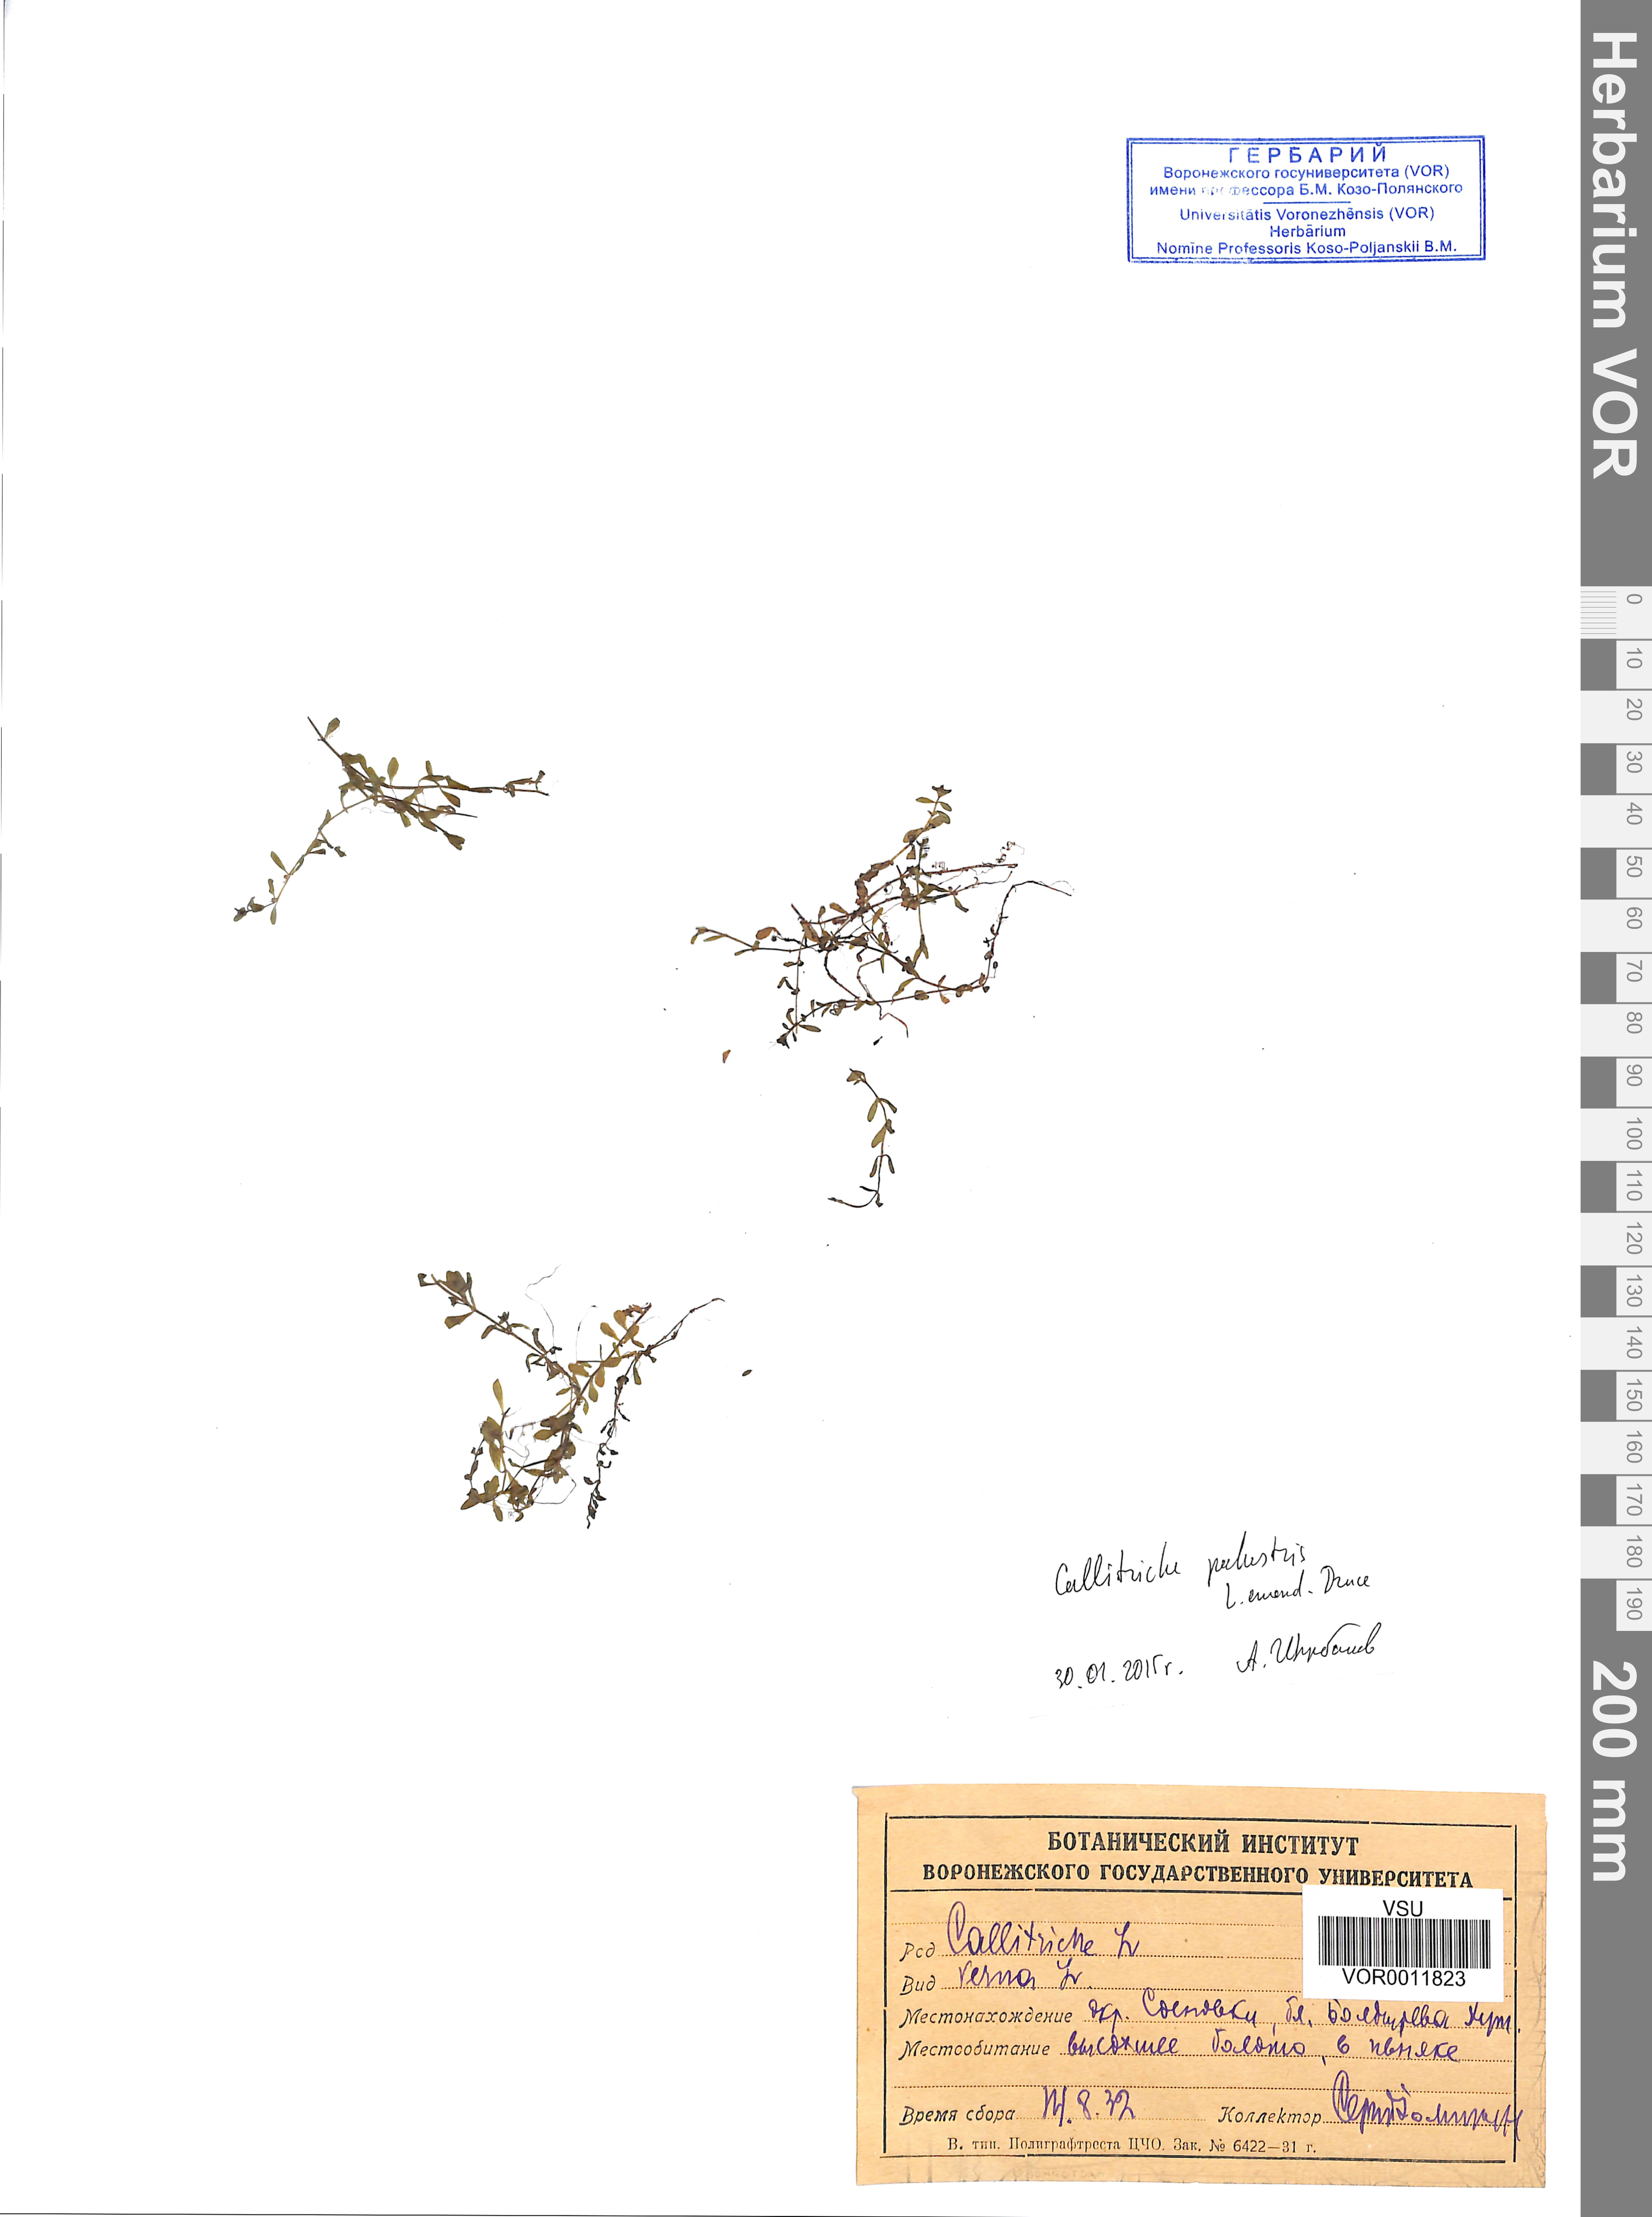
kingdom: Plantae
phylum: Tracheophyta
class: Magnoliopsida
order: Lamiales
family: Plantaginaceae
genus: Callitriche
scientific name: Callitriche palustris
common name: Spring water-starwort
